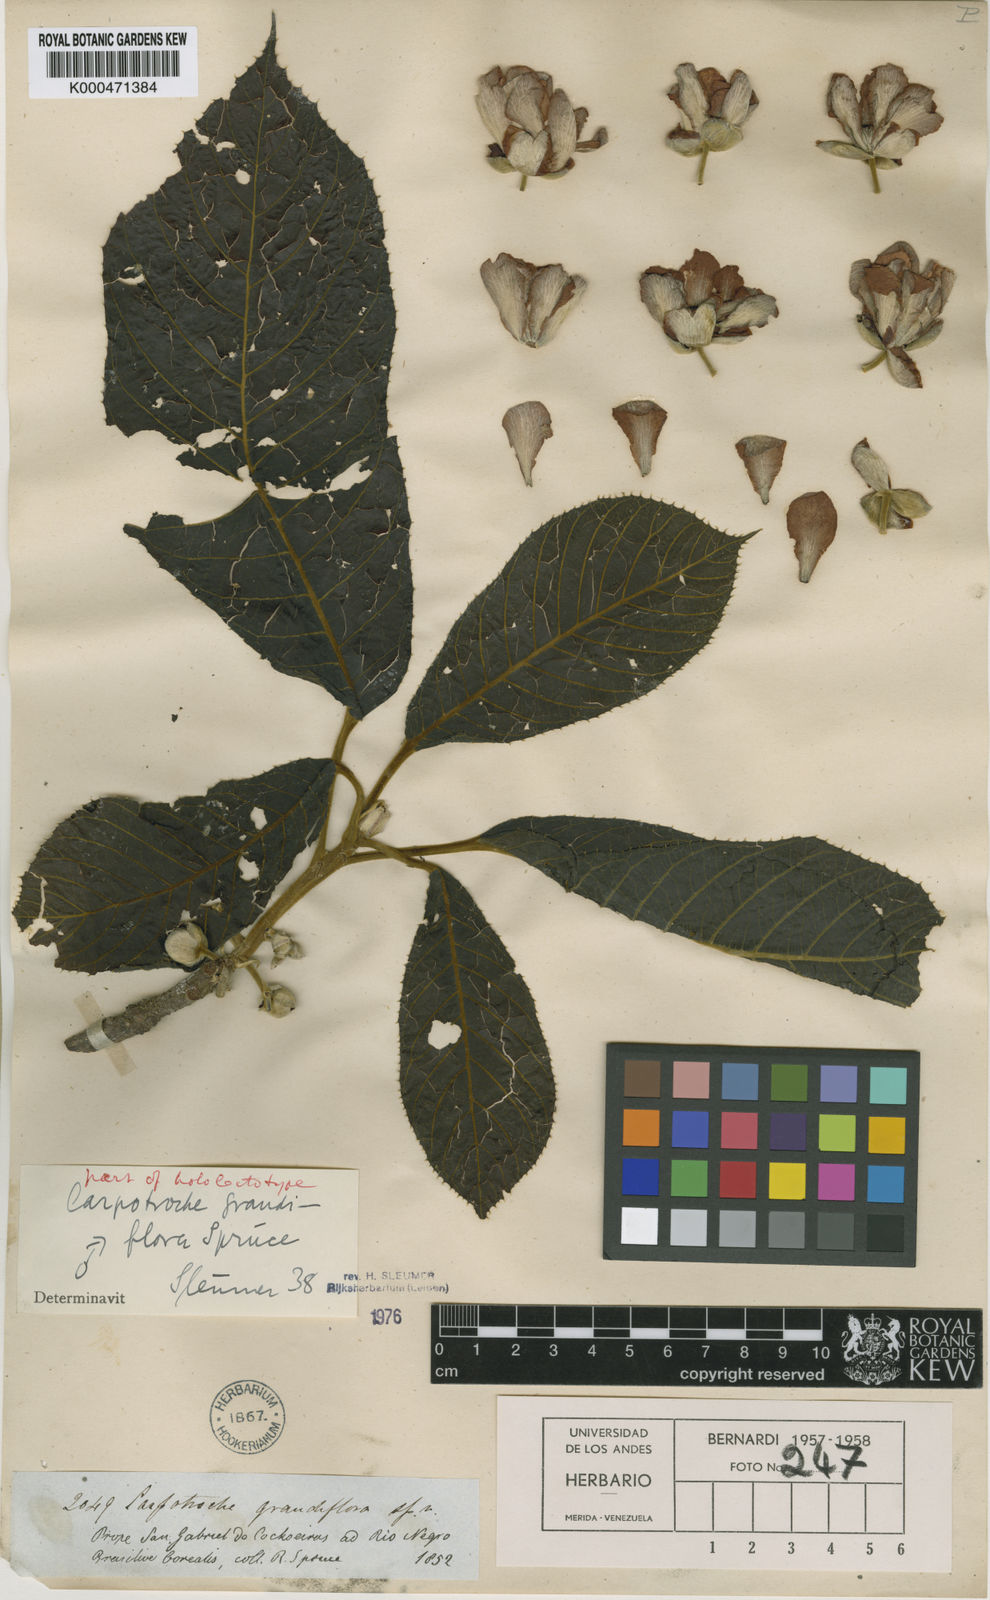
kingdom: Plantae
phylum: Tracheophyta
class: Magnoliopsida
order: Malpighiales
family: Achariaceae
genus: Carpotroche
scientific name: Carpotroche
